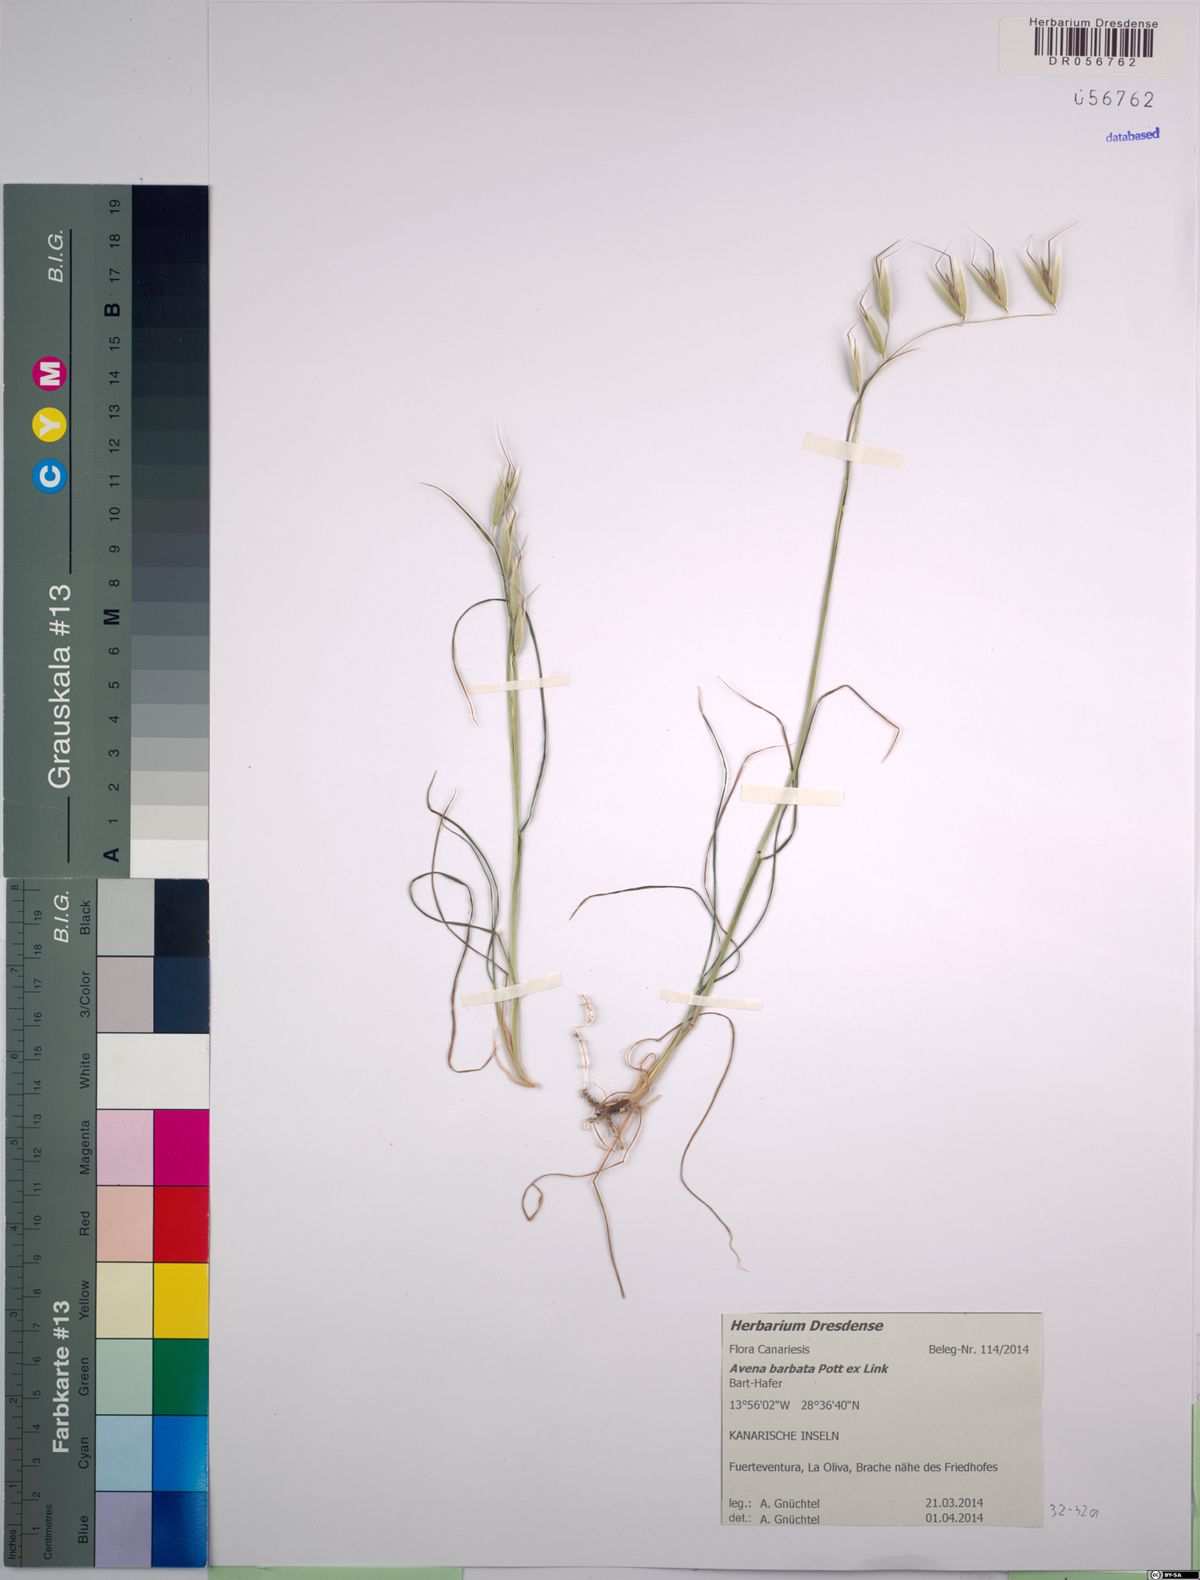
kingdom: Plantae
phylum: Tracheophyta
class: Liliopsida
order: Poales
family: Poaceae
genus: Avena
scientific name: Avena barbata
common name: Slender oat
